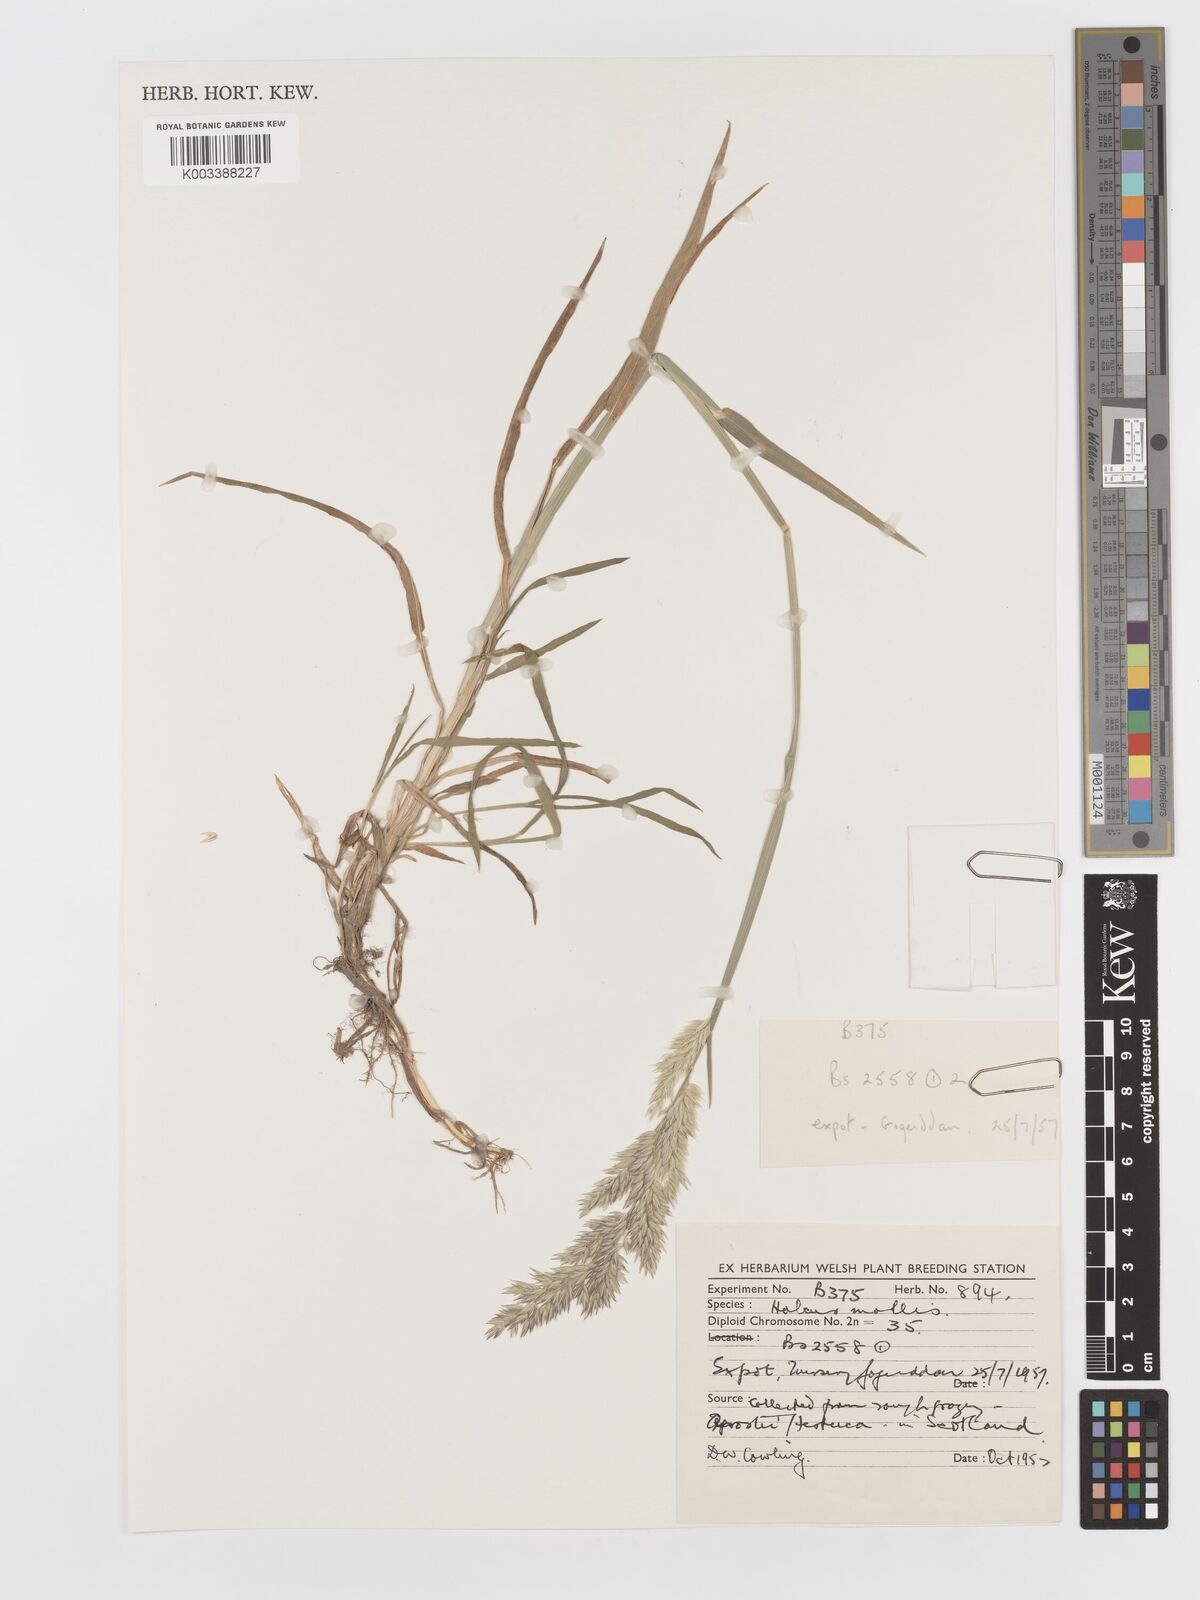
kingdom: Plantae
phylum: Tracheophyta
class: Liliopsida
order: Poales
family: Poaceae
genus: Holcus
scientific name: Holcus mollis
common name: Creeping velvetgrass
